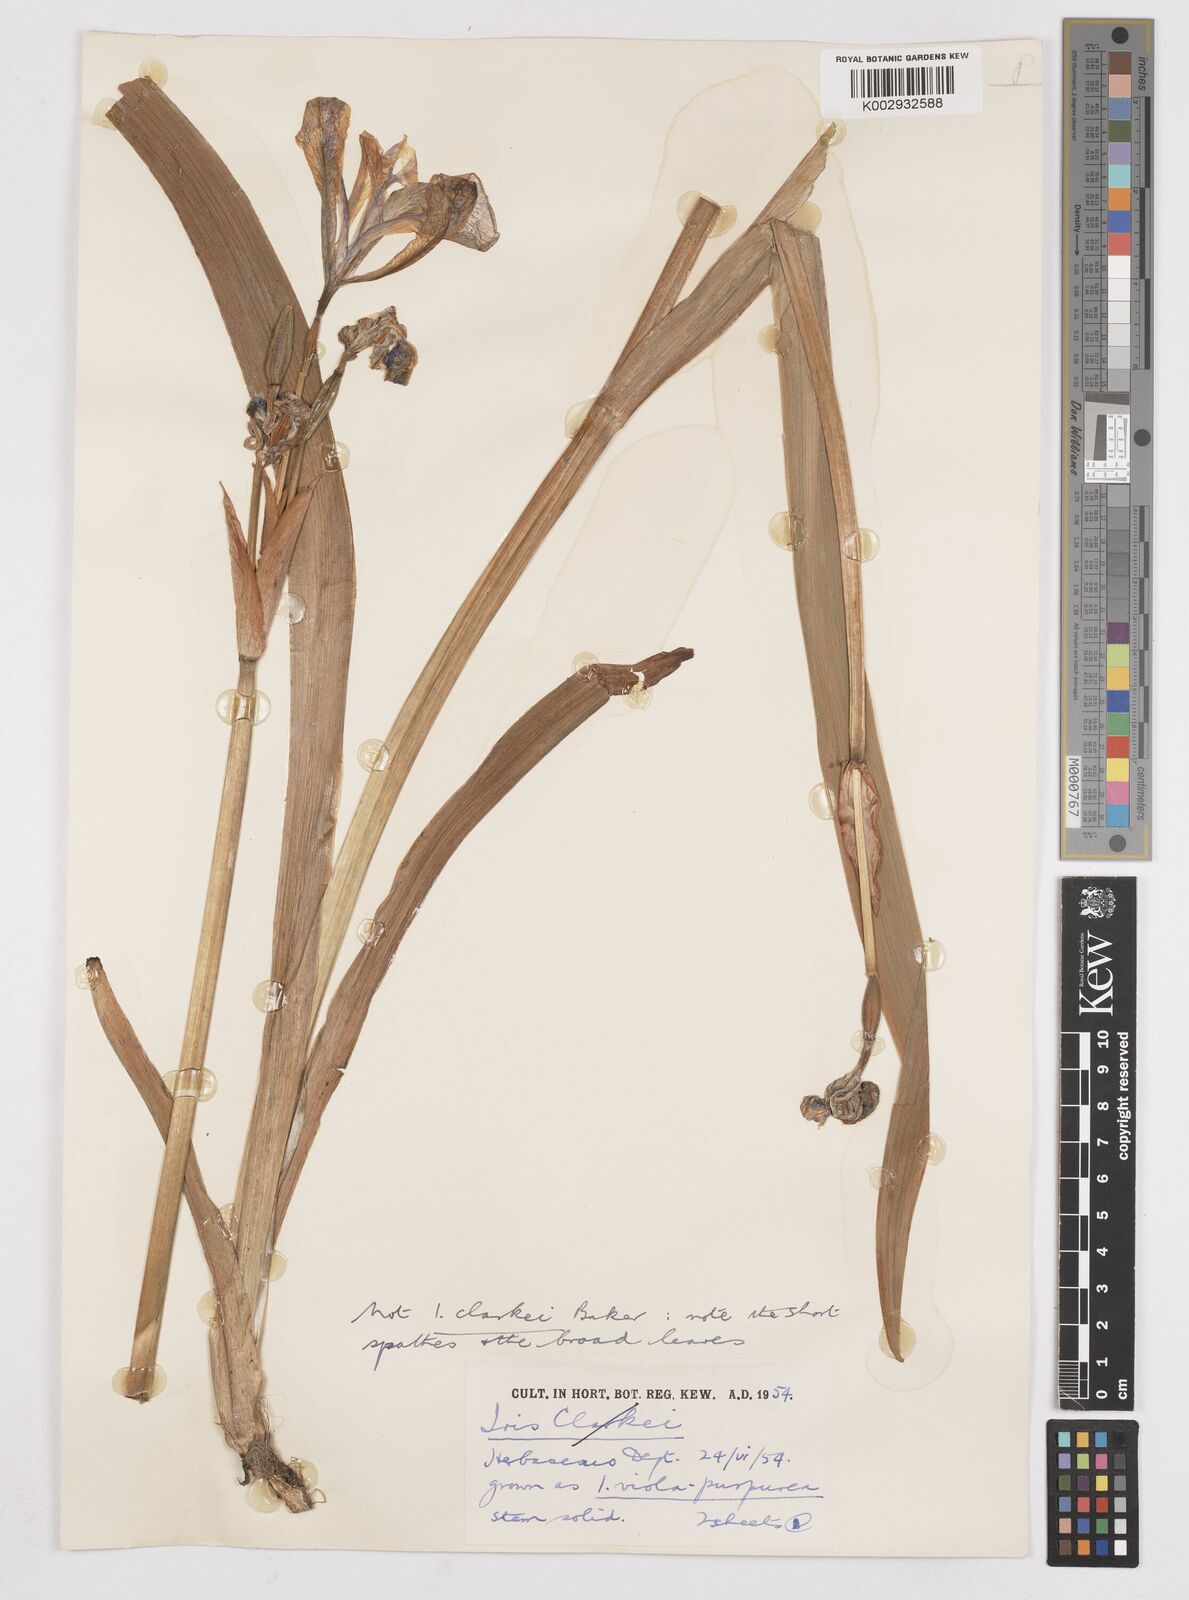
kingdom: Plantae
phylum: Tracheophyta
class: Liliopsida
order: Asparagales
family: Iridaceae
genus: Iris
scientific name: Iris clarkei
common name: Tibet iris
